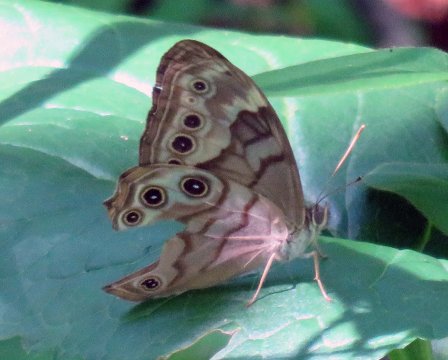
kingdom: Animalia
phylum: Arthropoda
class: Insecta
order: Lepidoptera
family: Nymphalidae
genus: Lethe
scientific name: Lethe creola
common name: Creole Pearly-Eye
